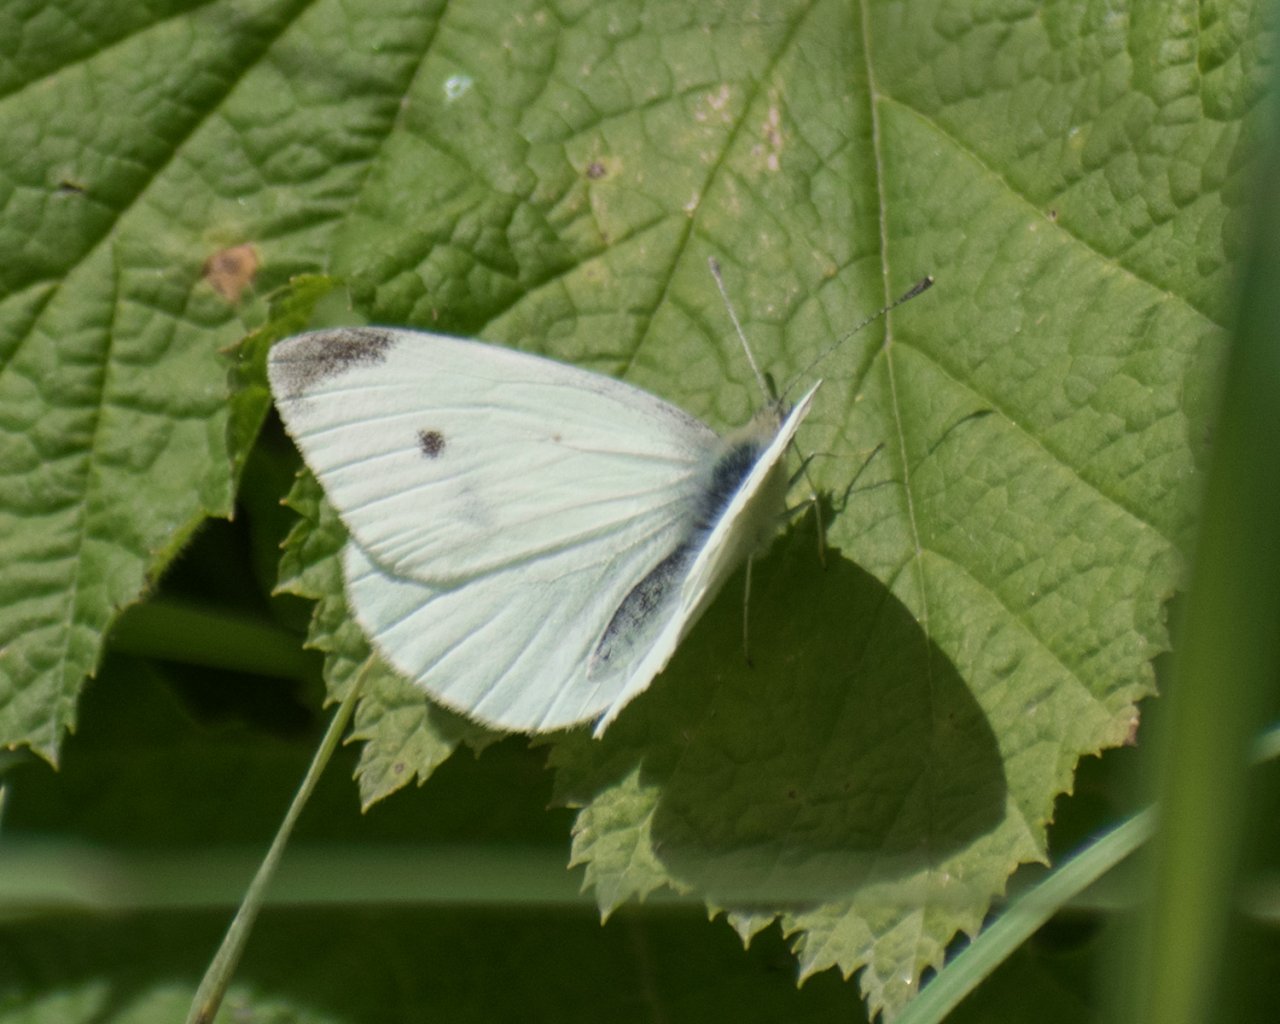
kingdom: Animalia
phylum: Arthropoda
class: Insecta
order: Lepidoptera
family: Pieridae
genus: Pieris
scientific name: Pieris rapae
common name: Cabbage White
